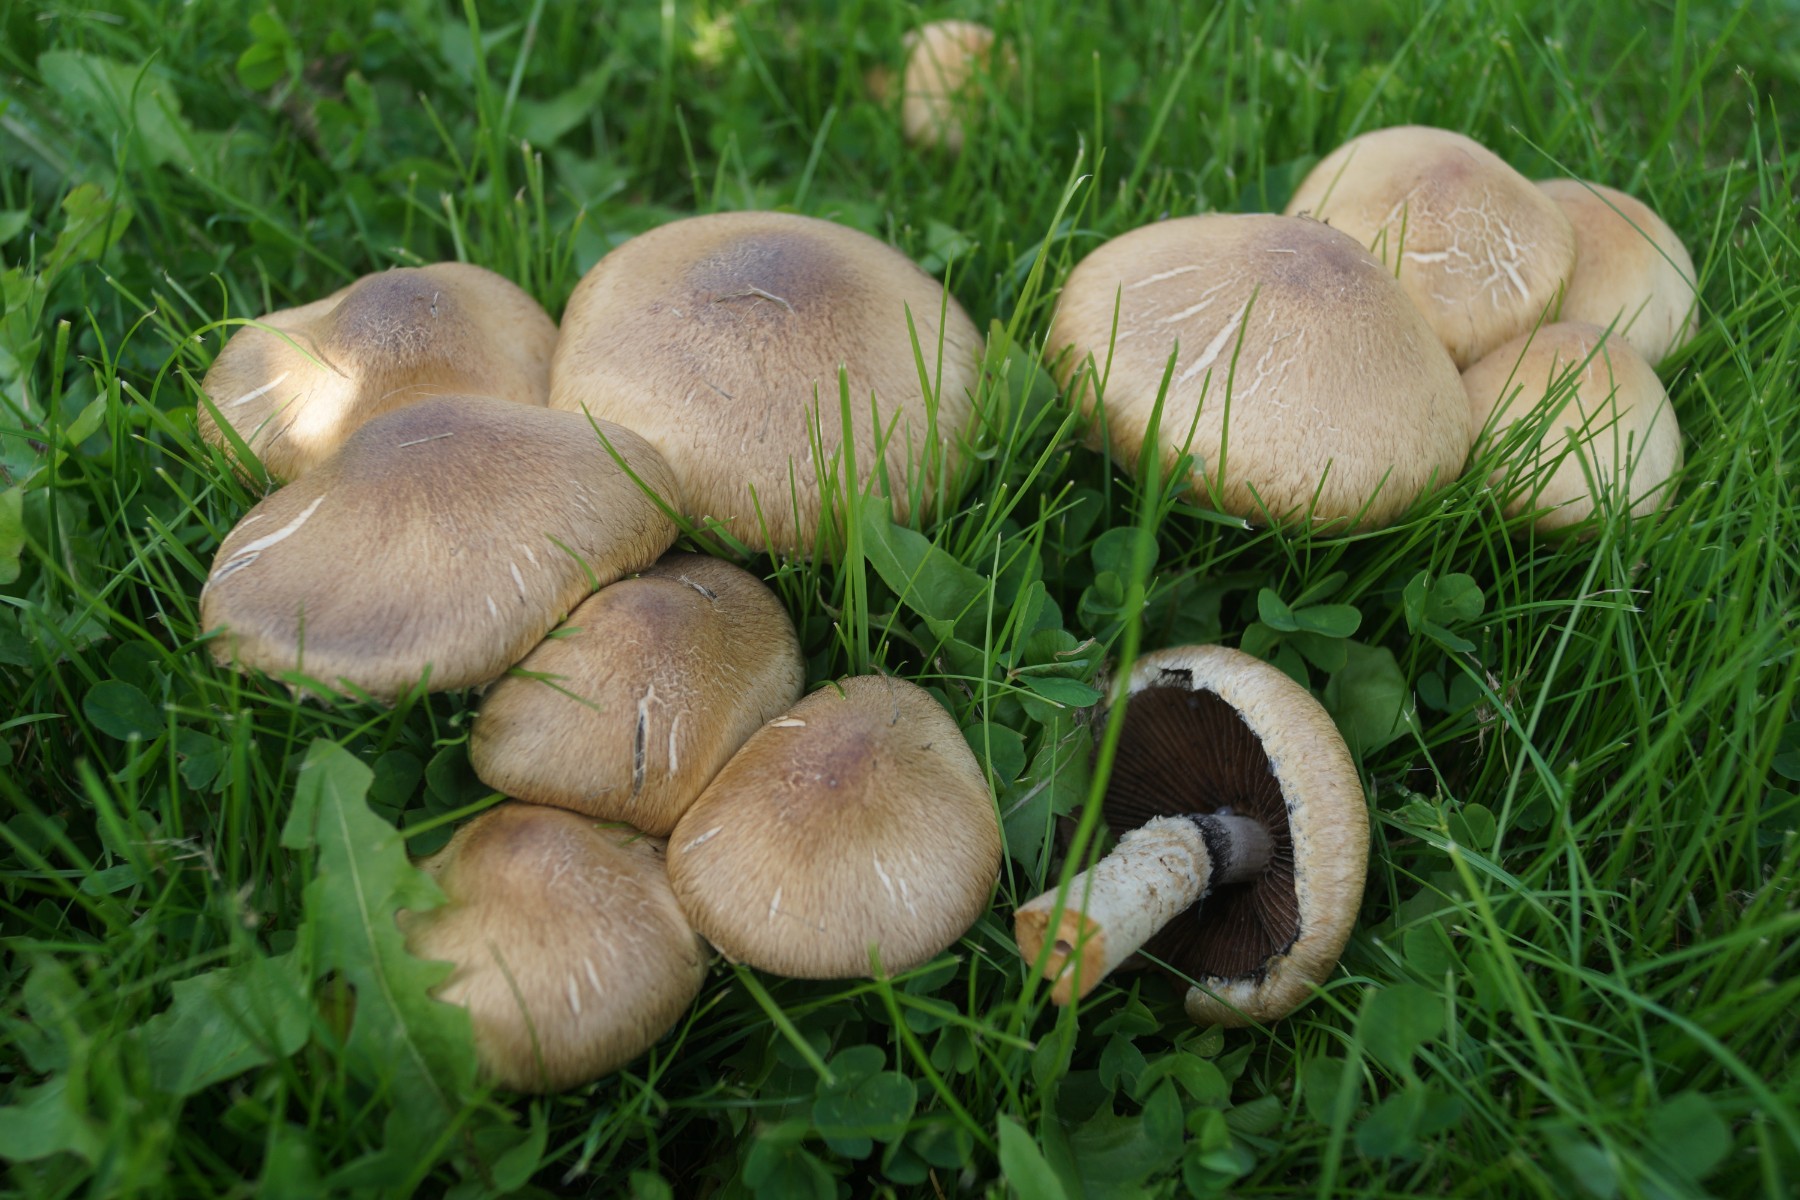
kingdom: Fungi
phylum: Basidiomycota
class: Agaricomycetes
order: Agaricales
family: Psathyrellaceae
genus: Lacrymaria
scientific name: Lacrymaria lacrymabunda
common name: grædende mørkhat
